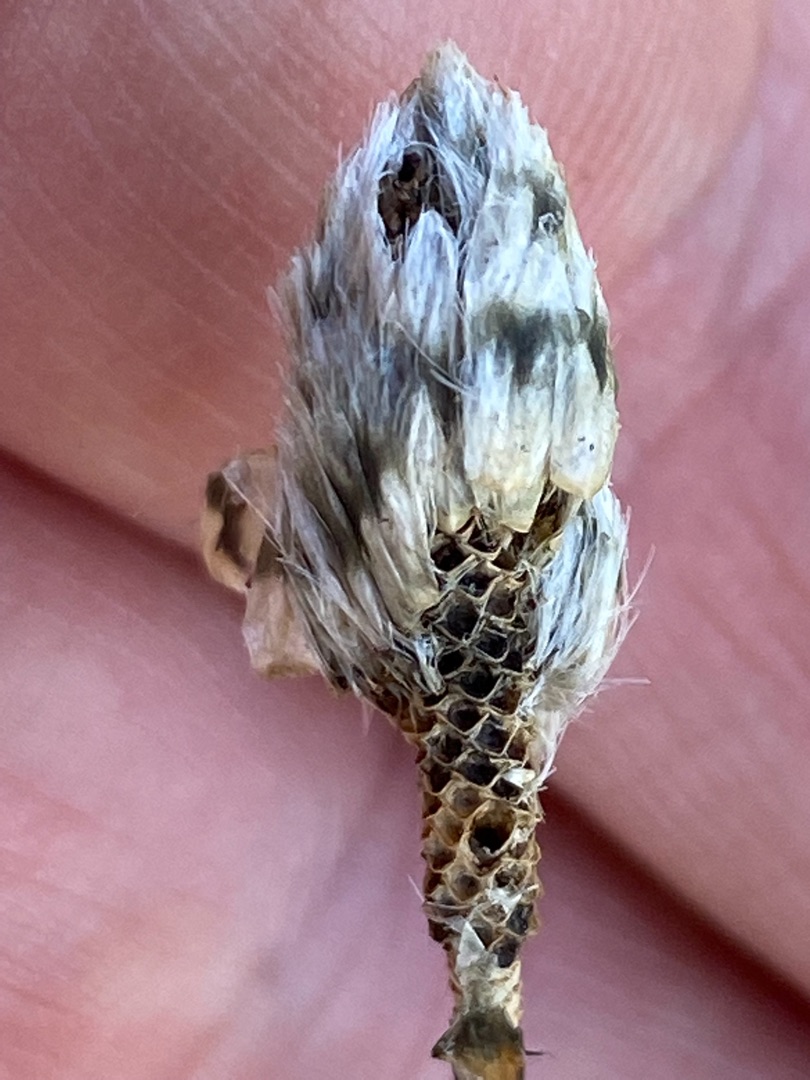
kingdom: Plantae
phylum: Tracheophyta
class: Liliopsida
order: Poales
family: Cyperaceae
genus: Eriophorum
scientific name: Eriophorum vaginatum
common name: Tue-kæruld
